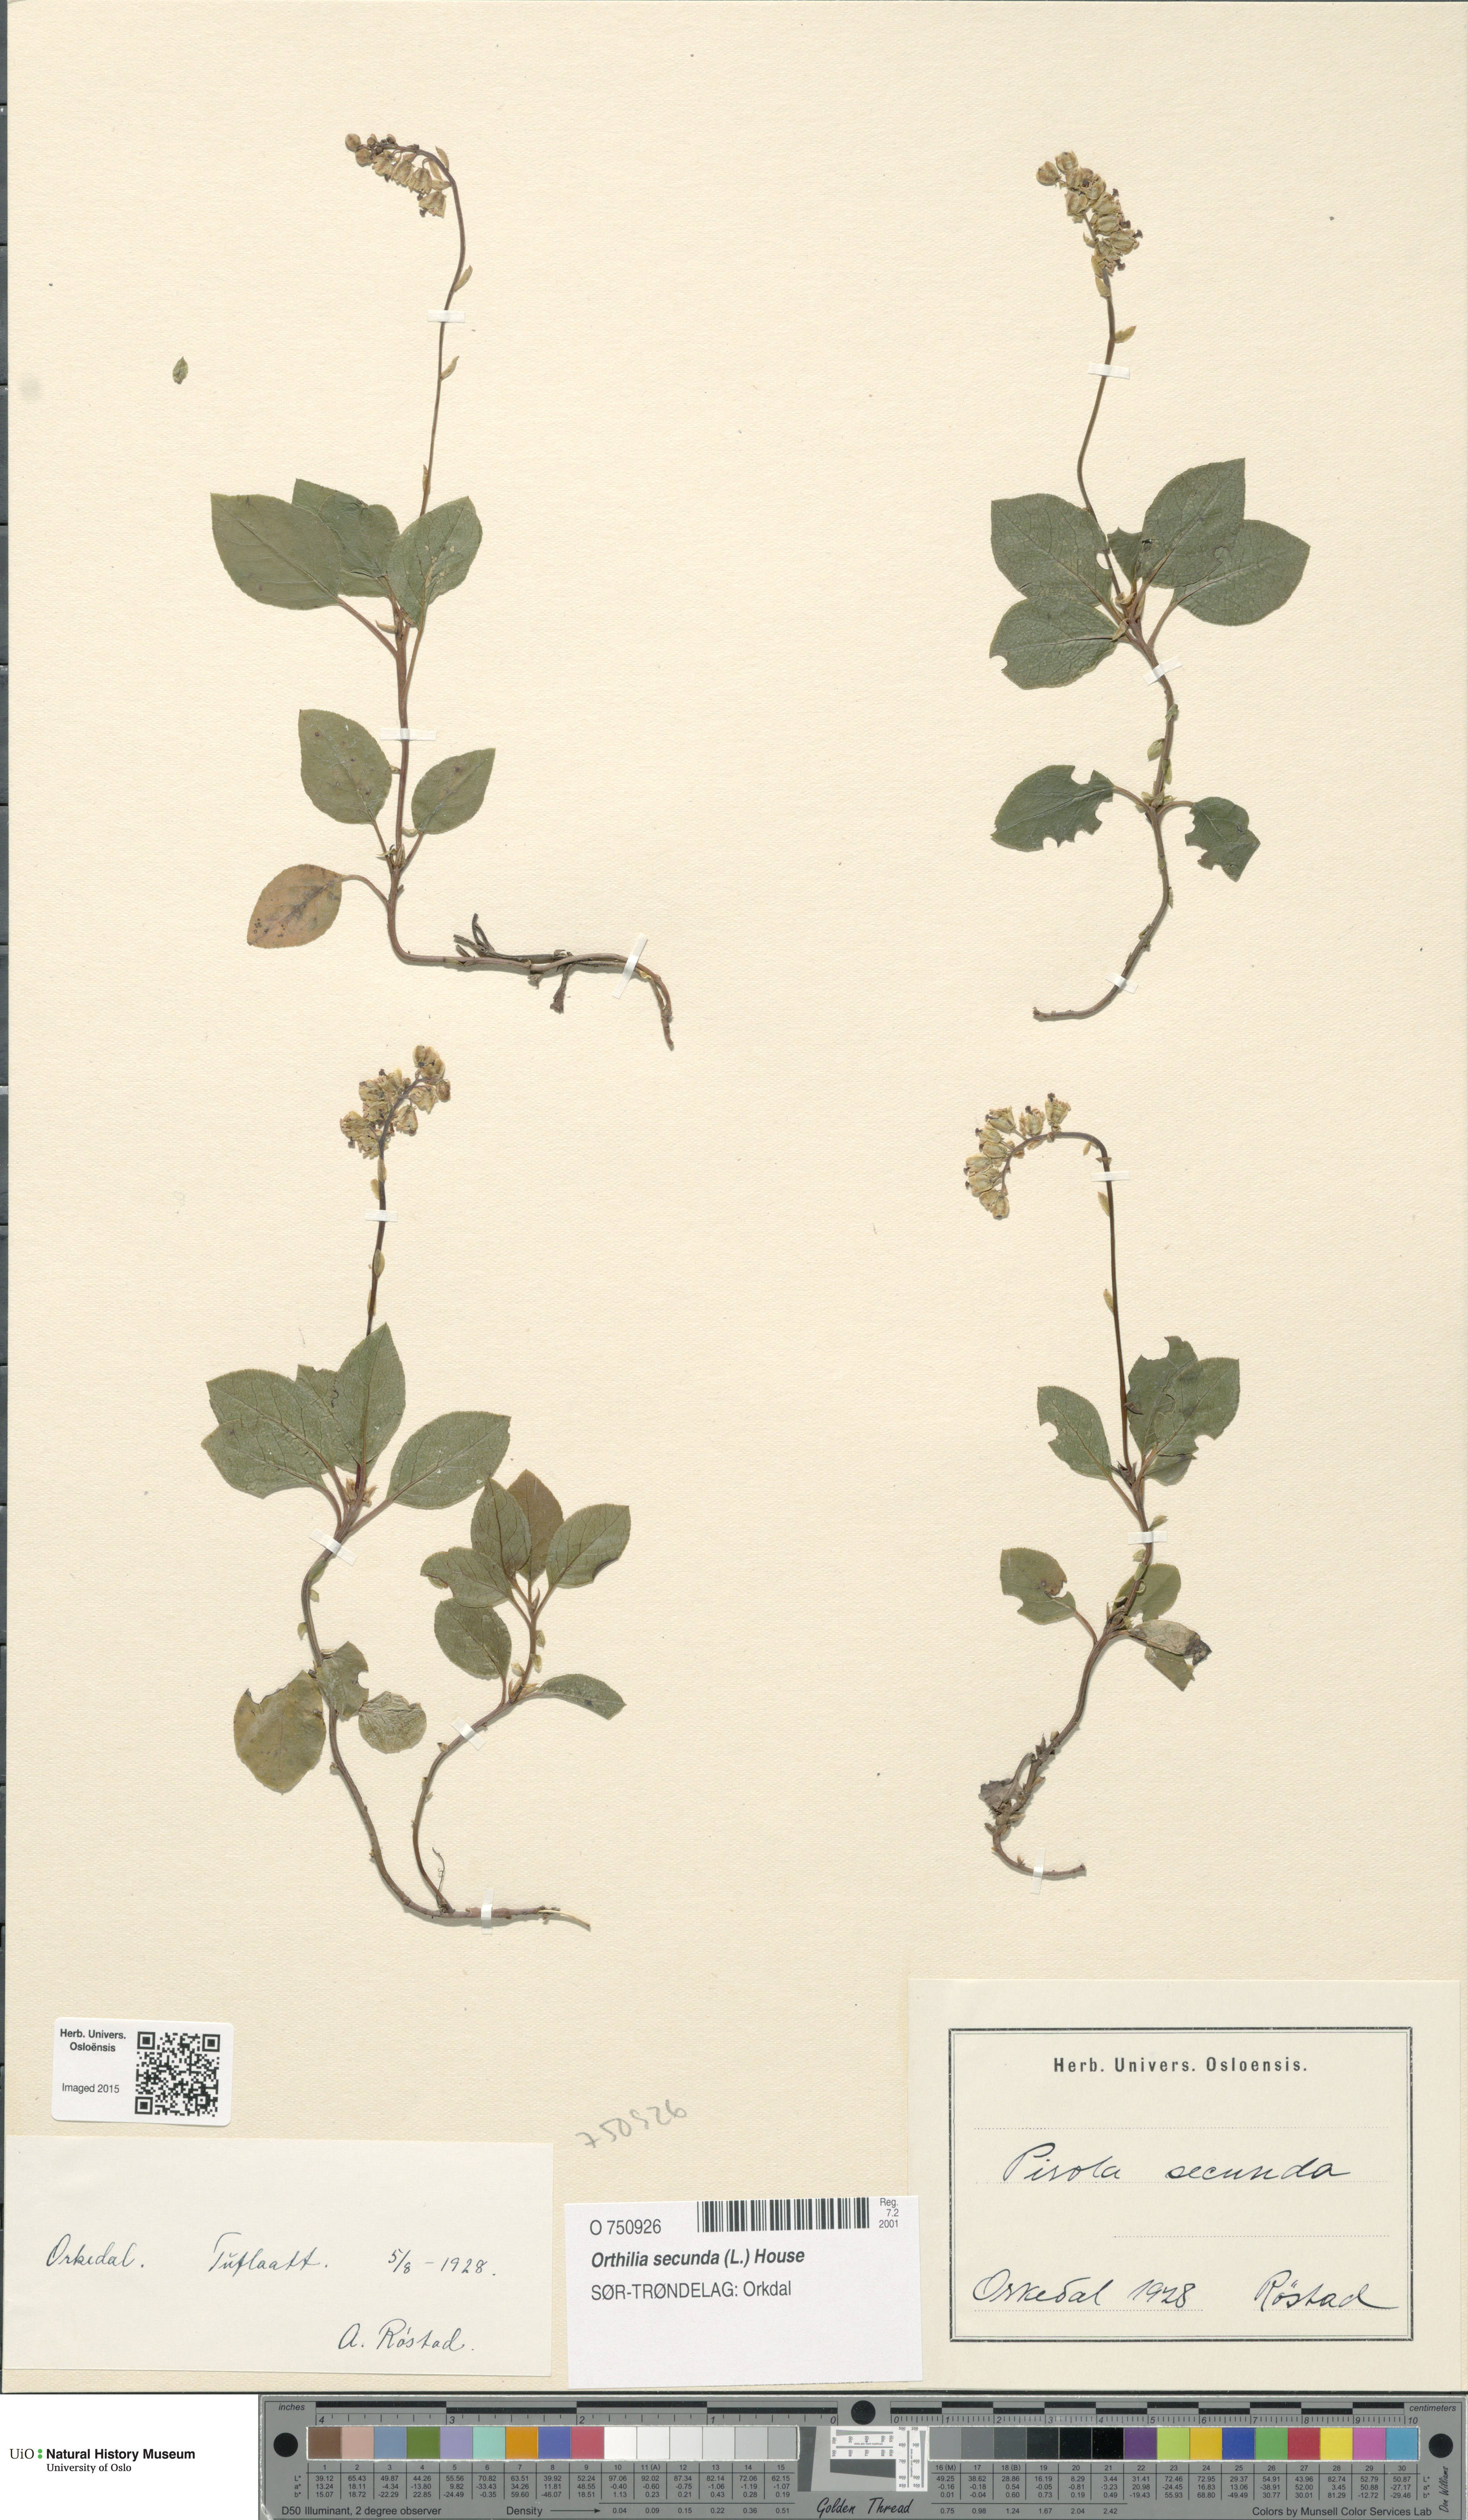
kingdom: Plantae
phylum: Tracheophyta
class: Magnoliopsida
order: Ericales
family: Ericaceae
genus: Orthilia
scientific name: Orthilia secunda
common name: One-sided orthilia
